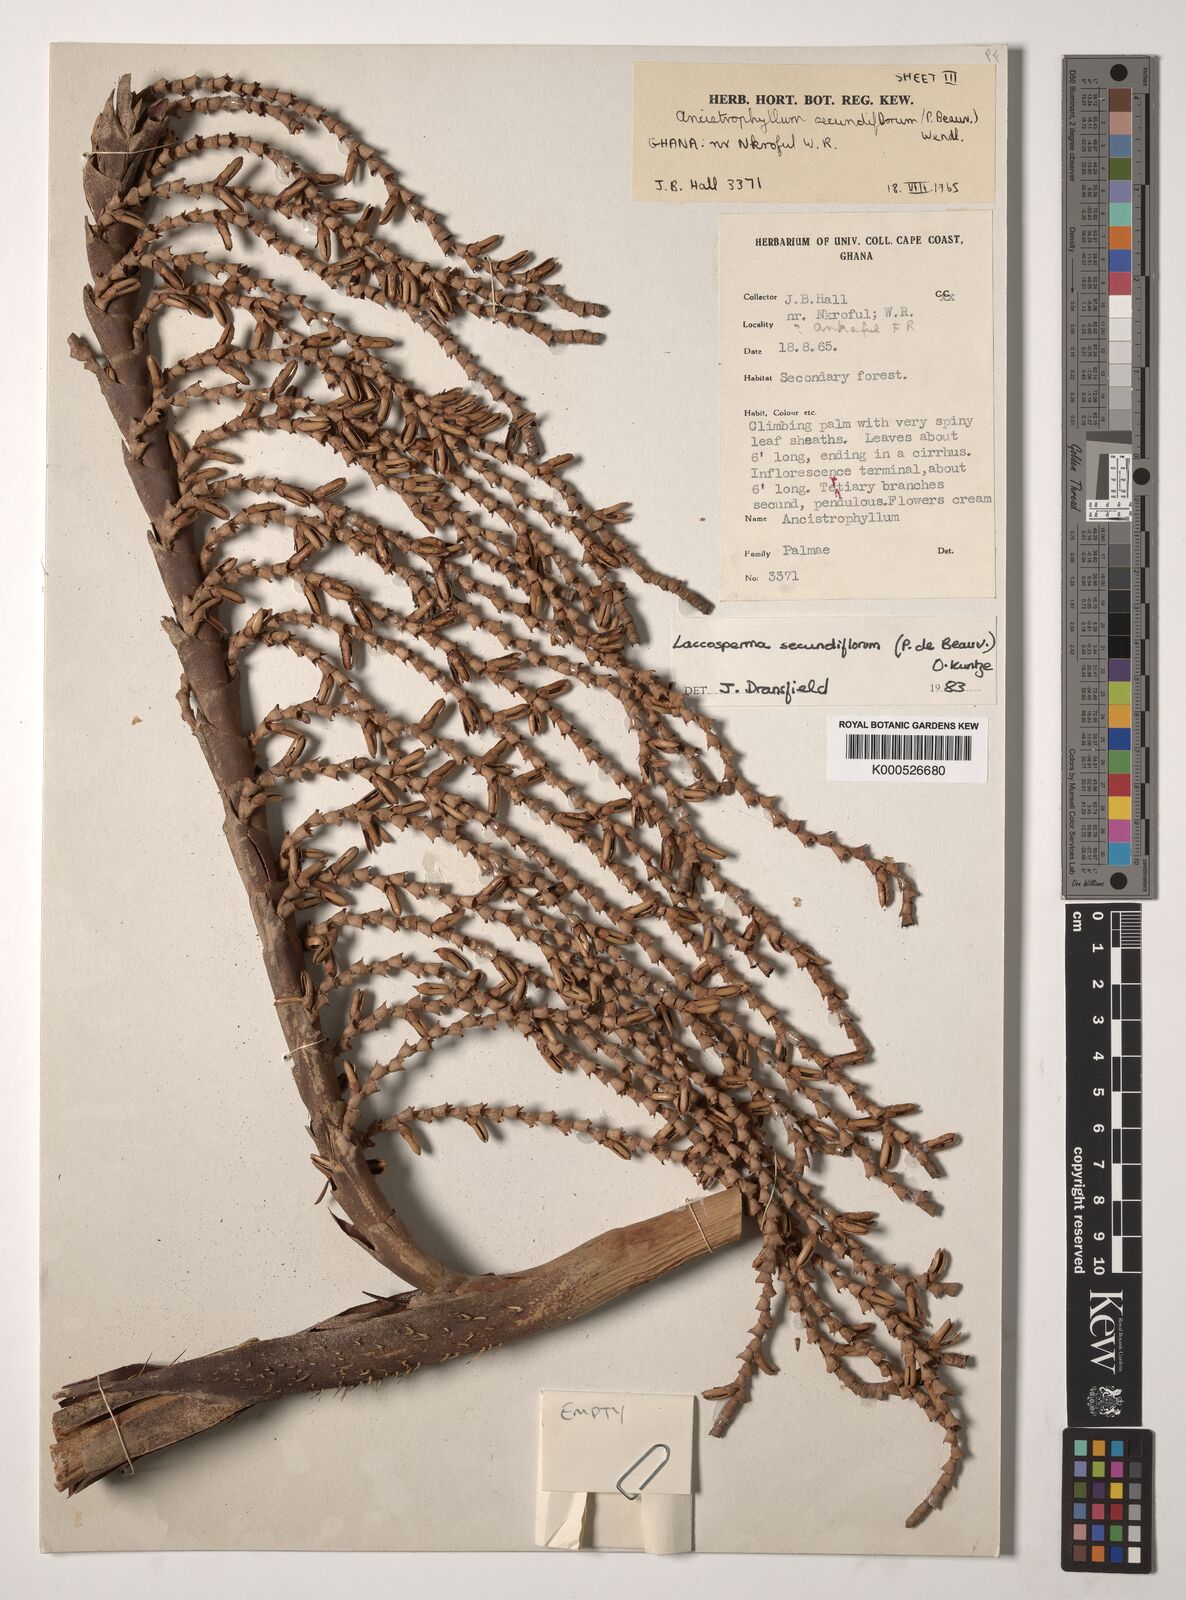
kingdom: Plantae
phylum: Tracheophyta
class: Liliopsida
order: Arecales
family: Arecaceae
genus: Laccosperma
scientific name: Laccosperma secundiflorum
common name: Rattan
